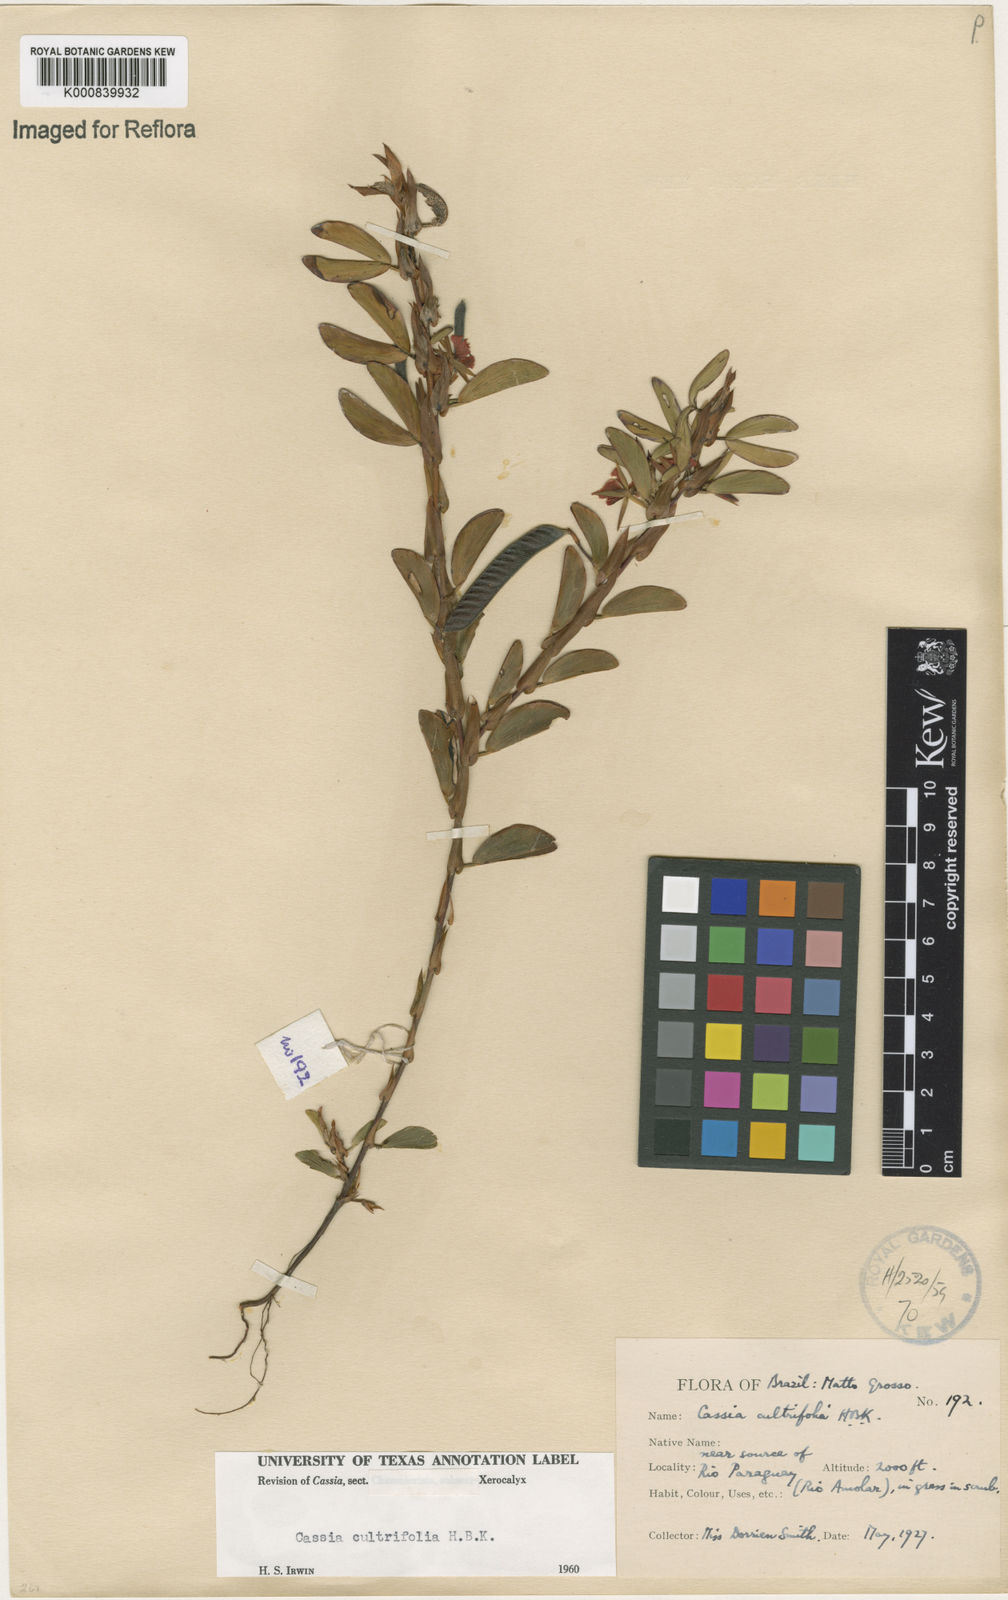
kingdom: Plantae
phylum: Tracheophyta
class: Magnoliopsida
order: Fabales
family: Fabaceae
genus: Chamaecrista
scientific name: Chamaecrista diphylla
